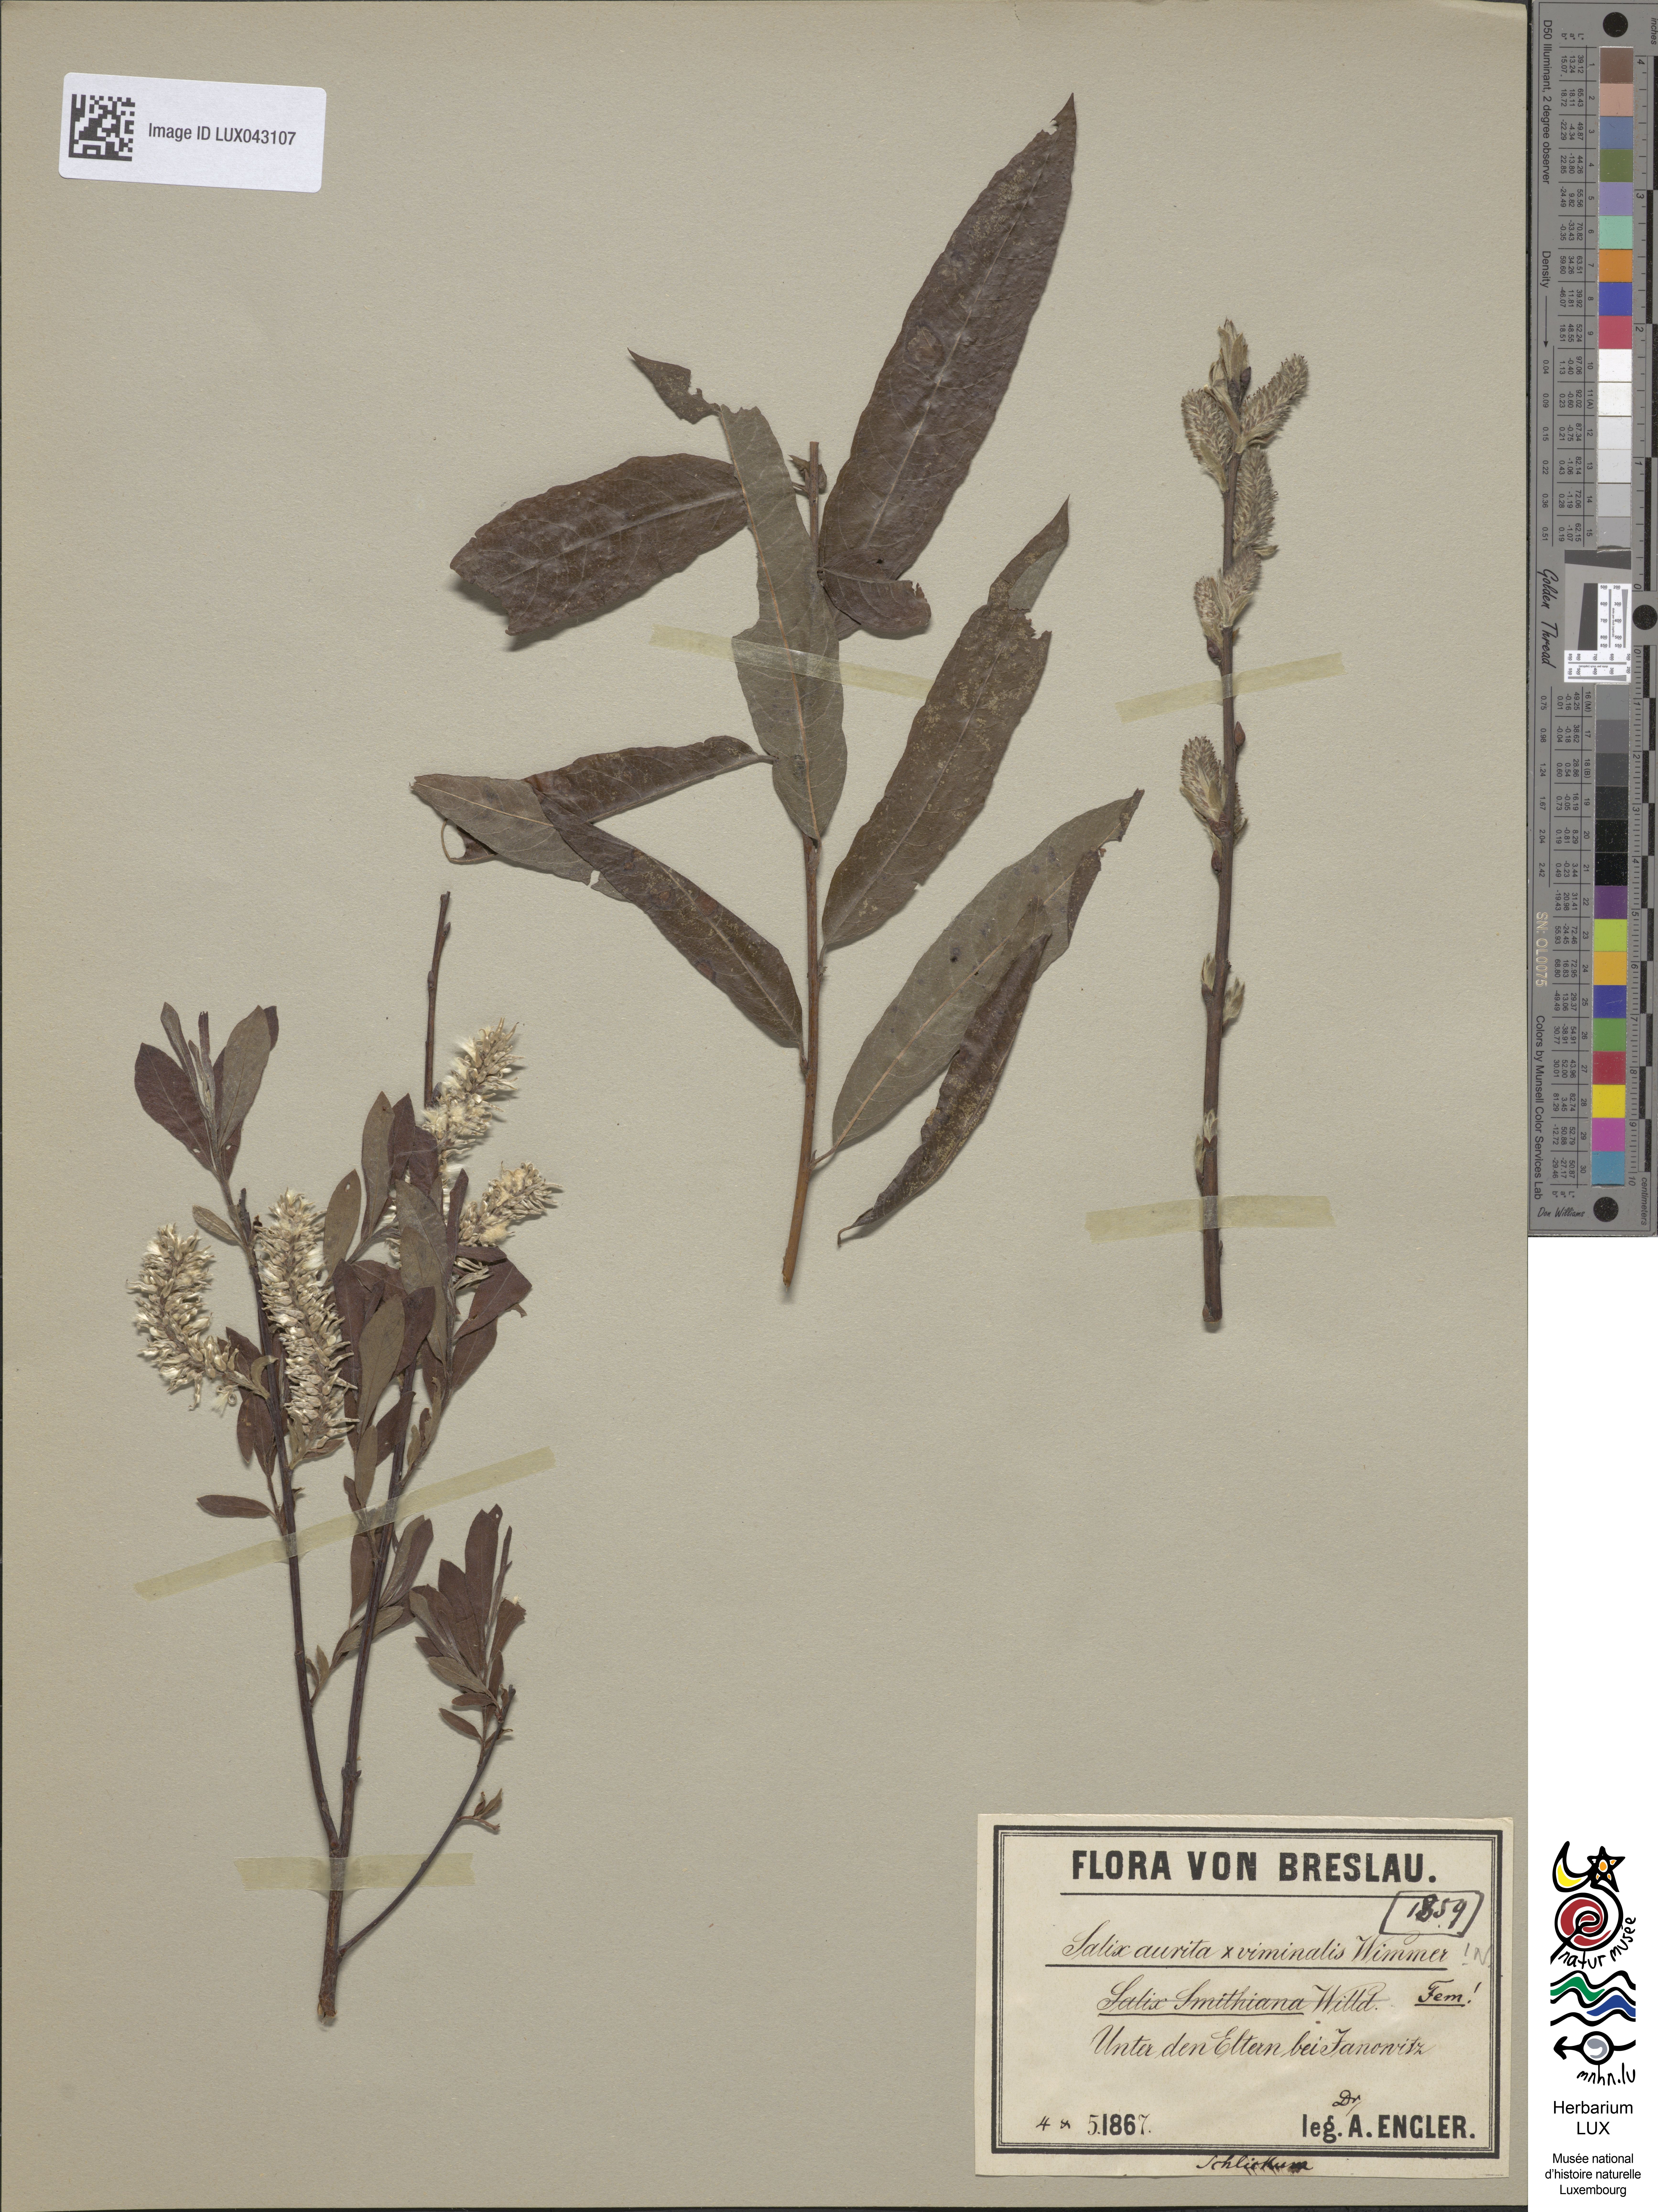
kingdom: Plantae
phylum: Tracheophyta
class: Magnoliopsida
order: Malpighiales
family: Salicaceae
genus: Salix
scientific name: Salix
